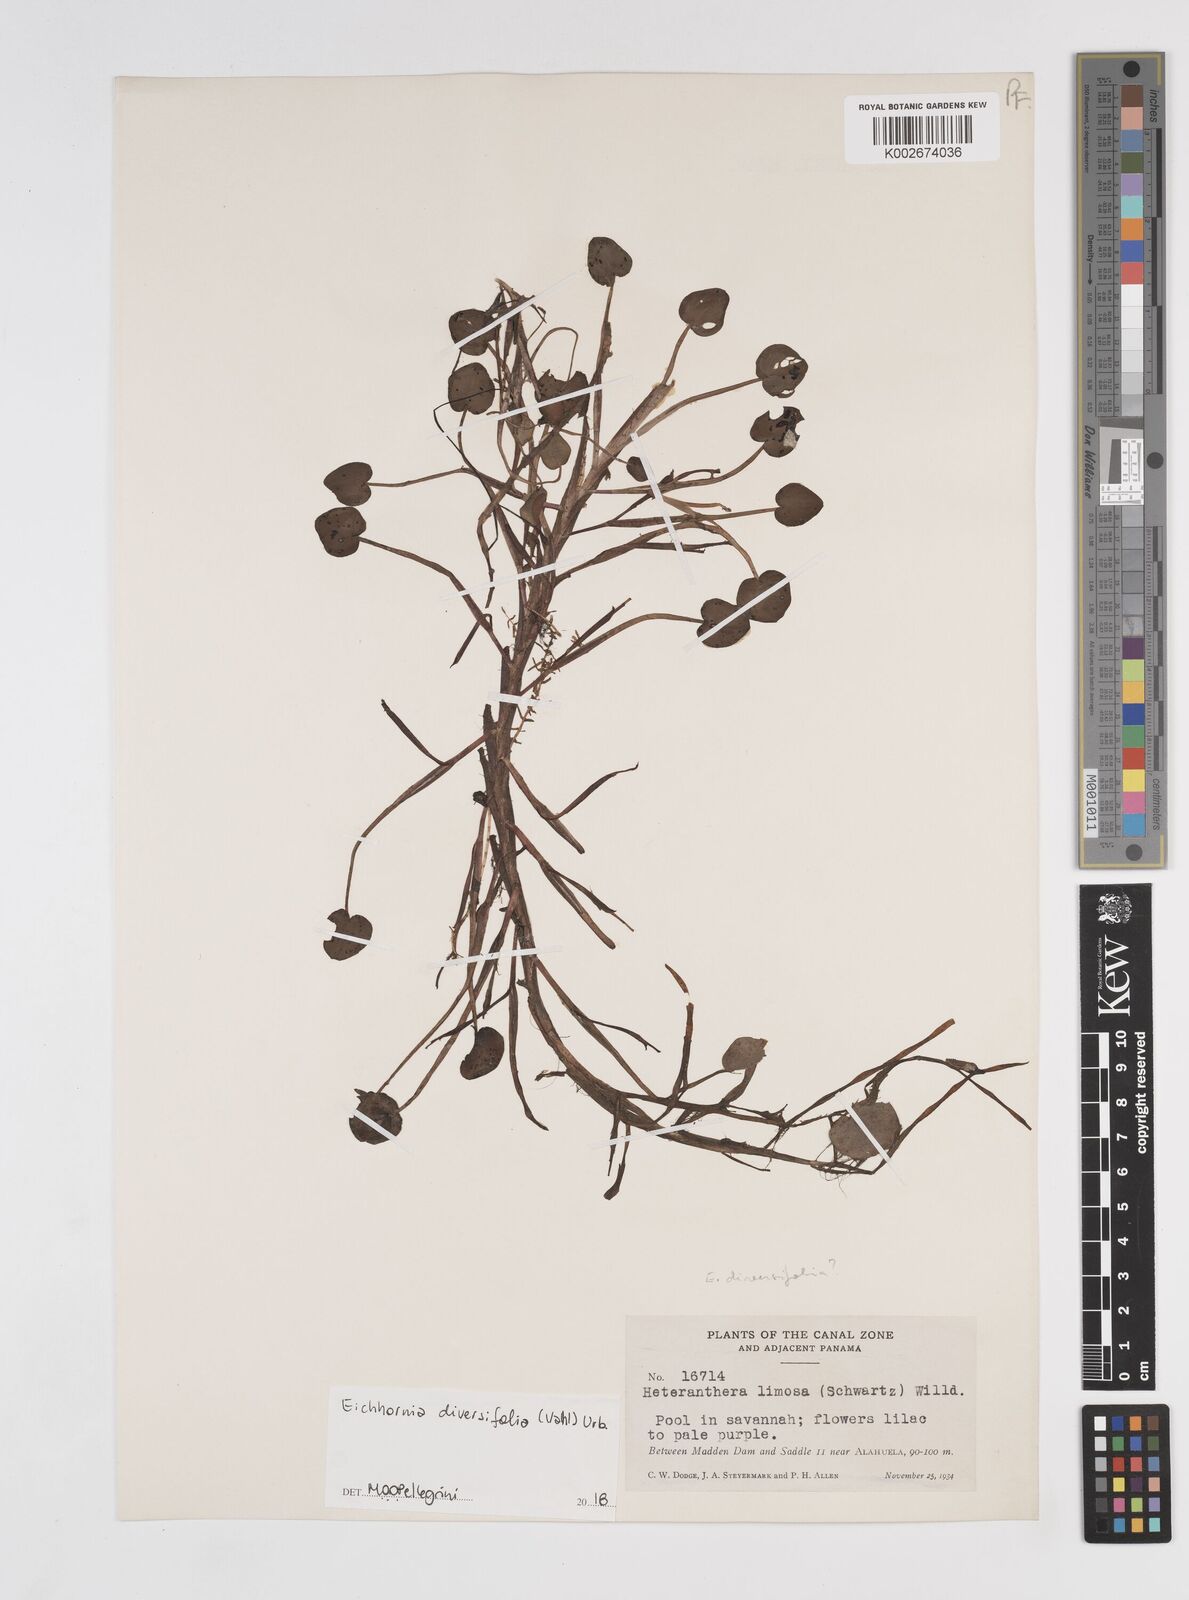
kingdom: Plantae
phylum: Tracheophyta
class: Liliopsida
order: Commelinales
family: Pontederiaceae
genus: Pontederia
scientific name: Pontederia diversifolia
